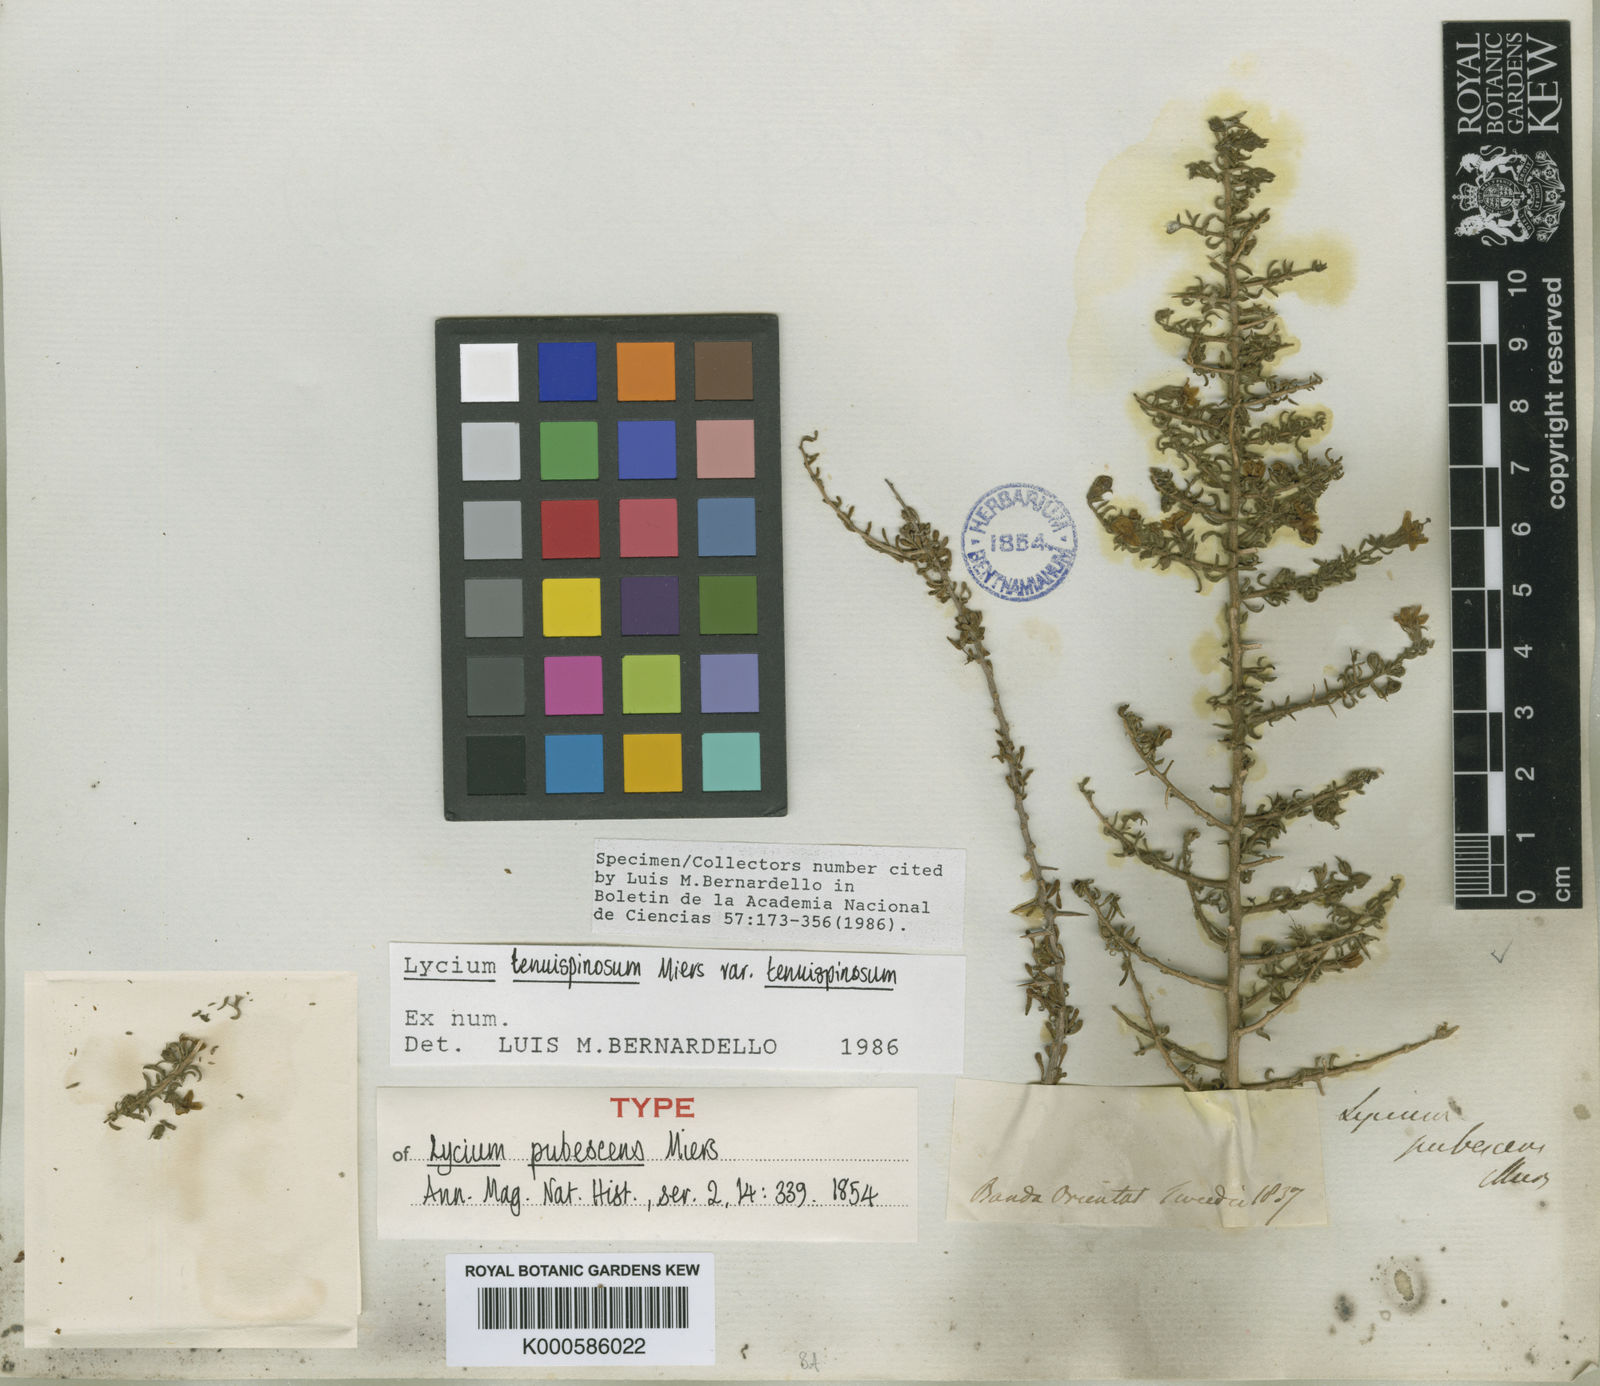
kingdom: Plantae
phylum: Tracheophyta
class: Magnoliopsida
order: Solanales
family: Solanaceae
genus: Lycium
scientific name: Lycium tenuispinosum
